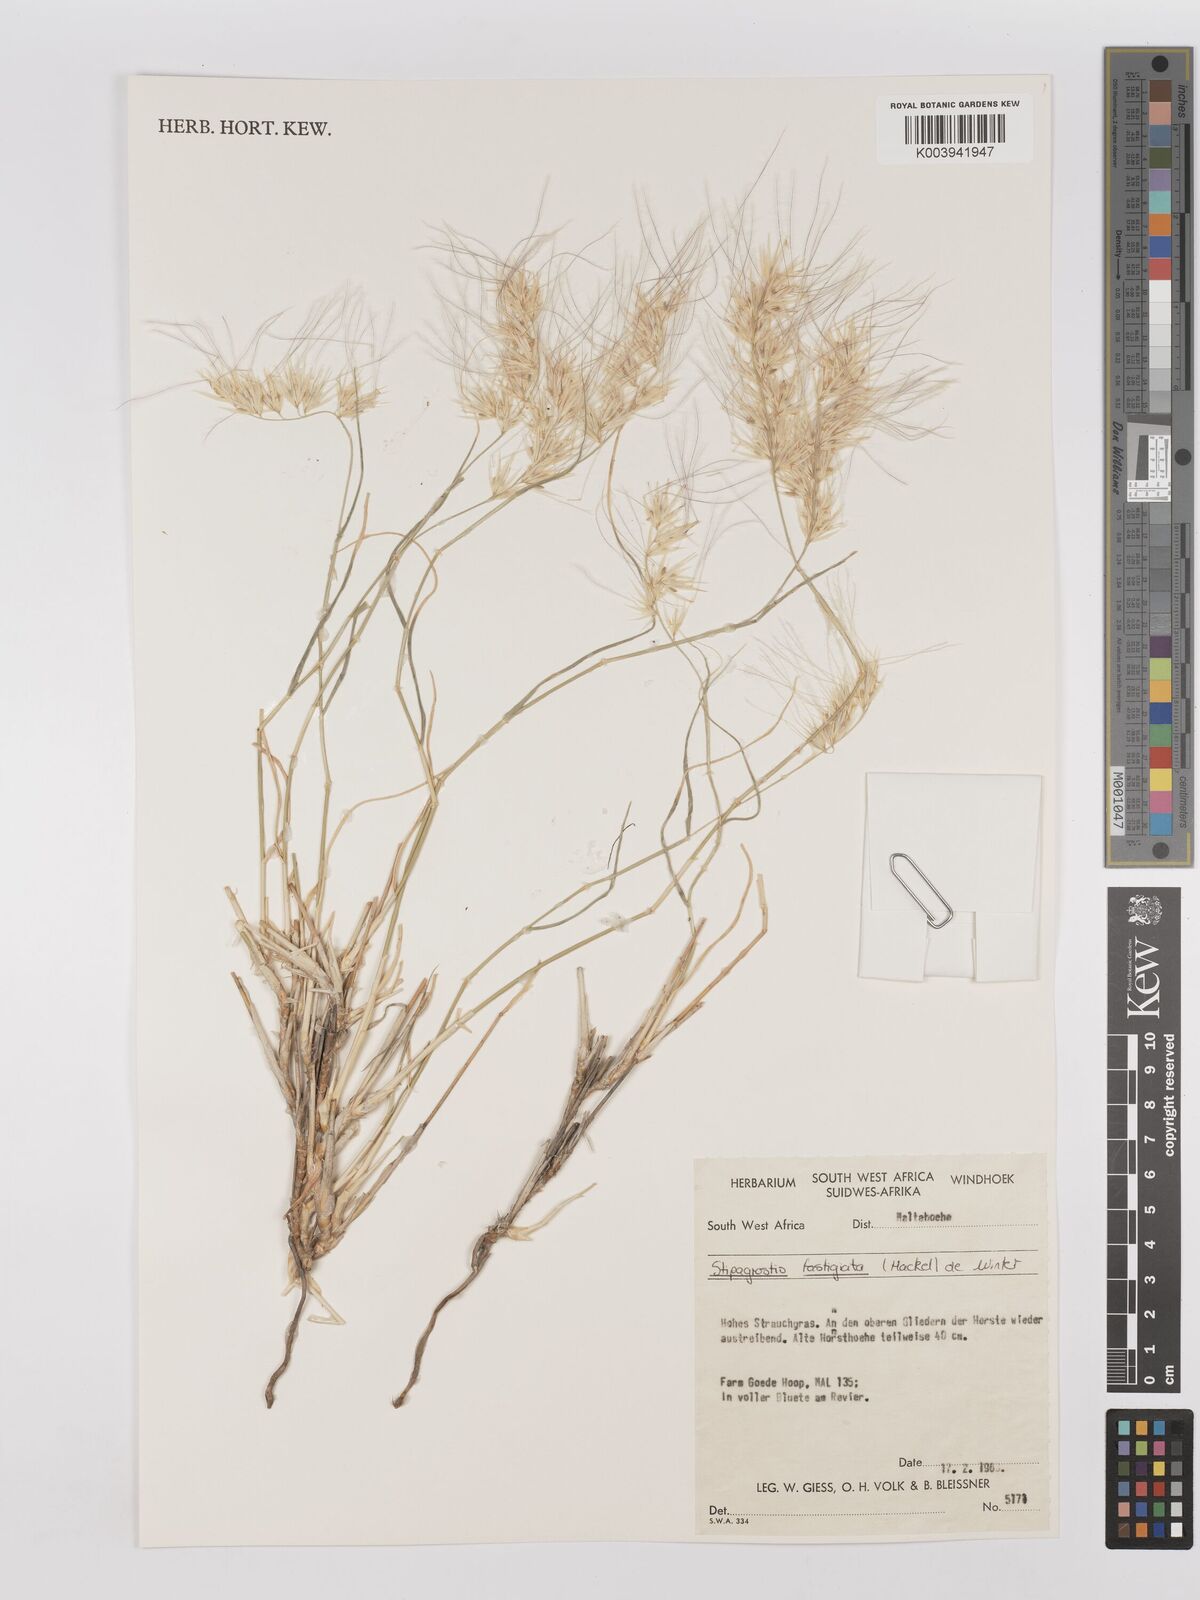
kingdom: Plantae
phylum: Tracheophyta
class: Liliopsida
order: Poales
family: Poaceae
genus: Stipagrostis
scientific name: Stipagrostis fastigiata
